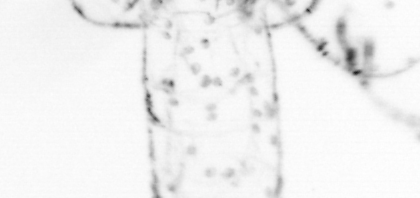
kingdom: Animalia
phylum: Chaetognatha
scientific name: Chaetognatha
